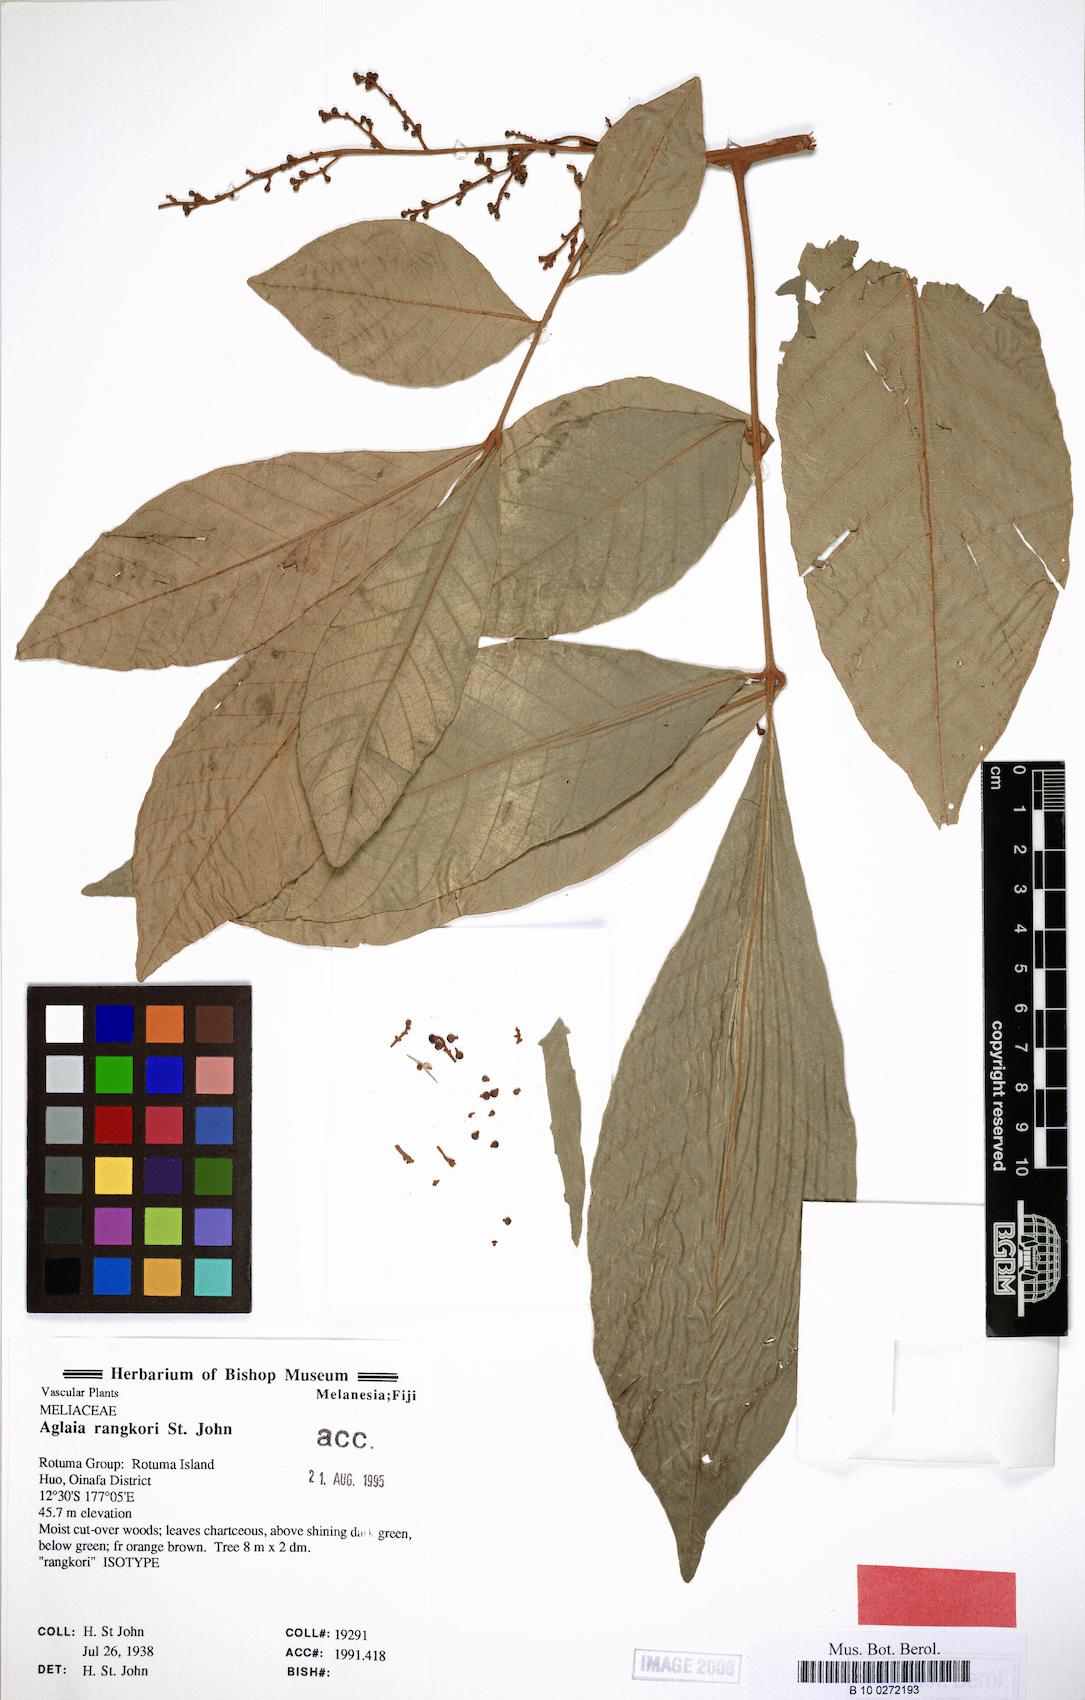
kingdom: Plantae
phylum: Tracheophyta
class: Magnoliopsida
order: Sapindales
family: Meliaceae
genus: Aglaia
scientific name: Aglaia
